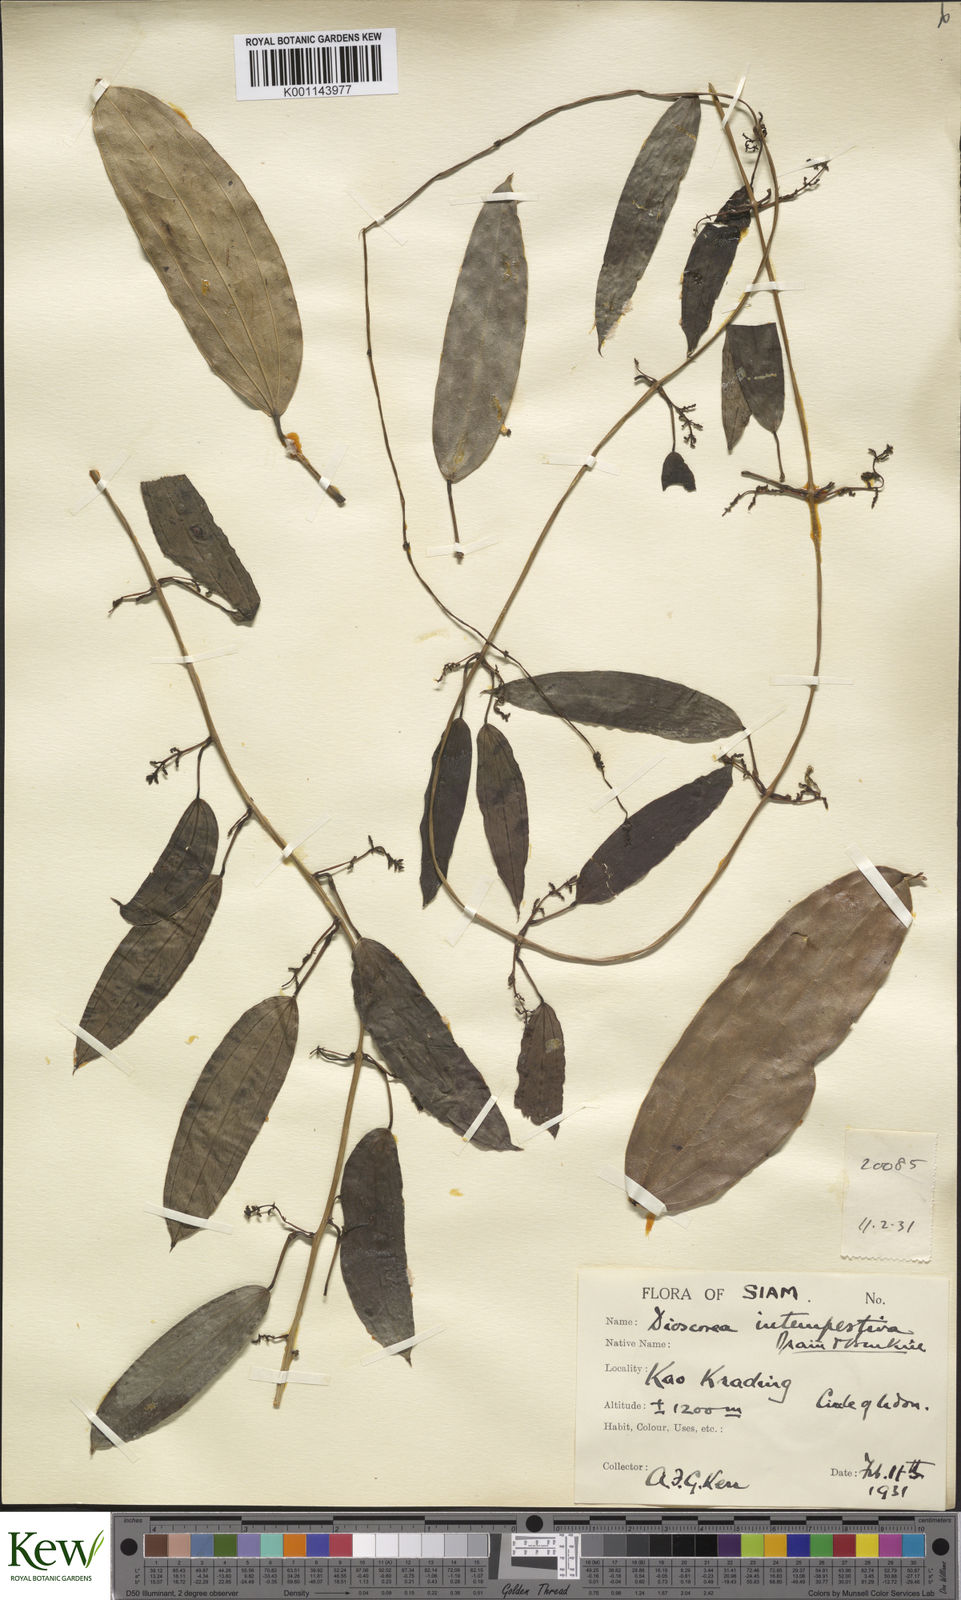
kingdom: Plantae
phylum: Tracheophyta
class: Liliopsida
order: Dioscoreales
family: Dioscoreaceae
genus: Dioscorea
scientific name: Dioscorea cirrhosa
